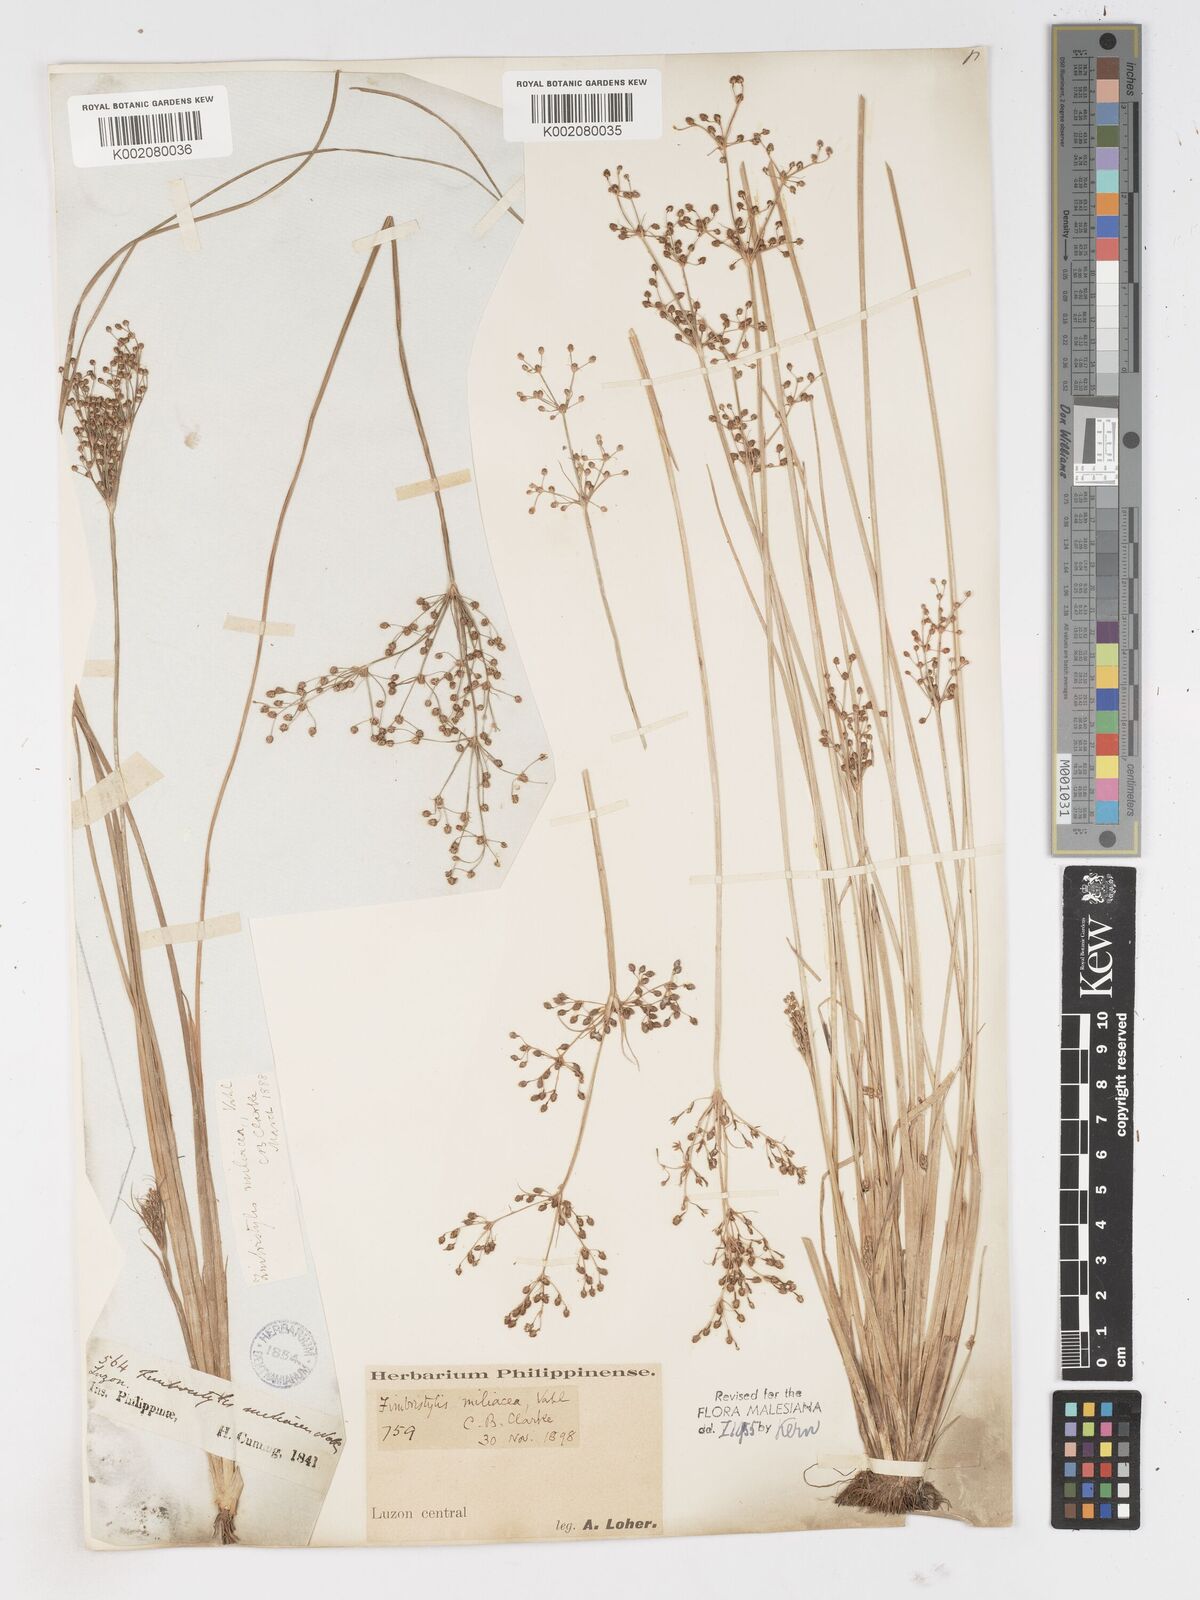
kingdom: Plantae
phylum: Tracheophyta
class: Liliopsida
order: Poales
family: Cyperaceae
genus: Fimbristylis
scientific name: Fimbristylis littoralis
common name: Fimbry
